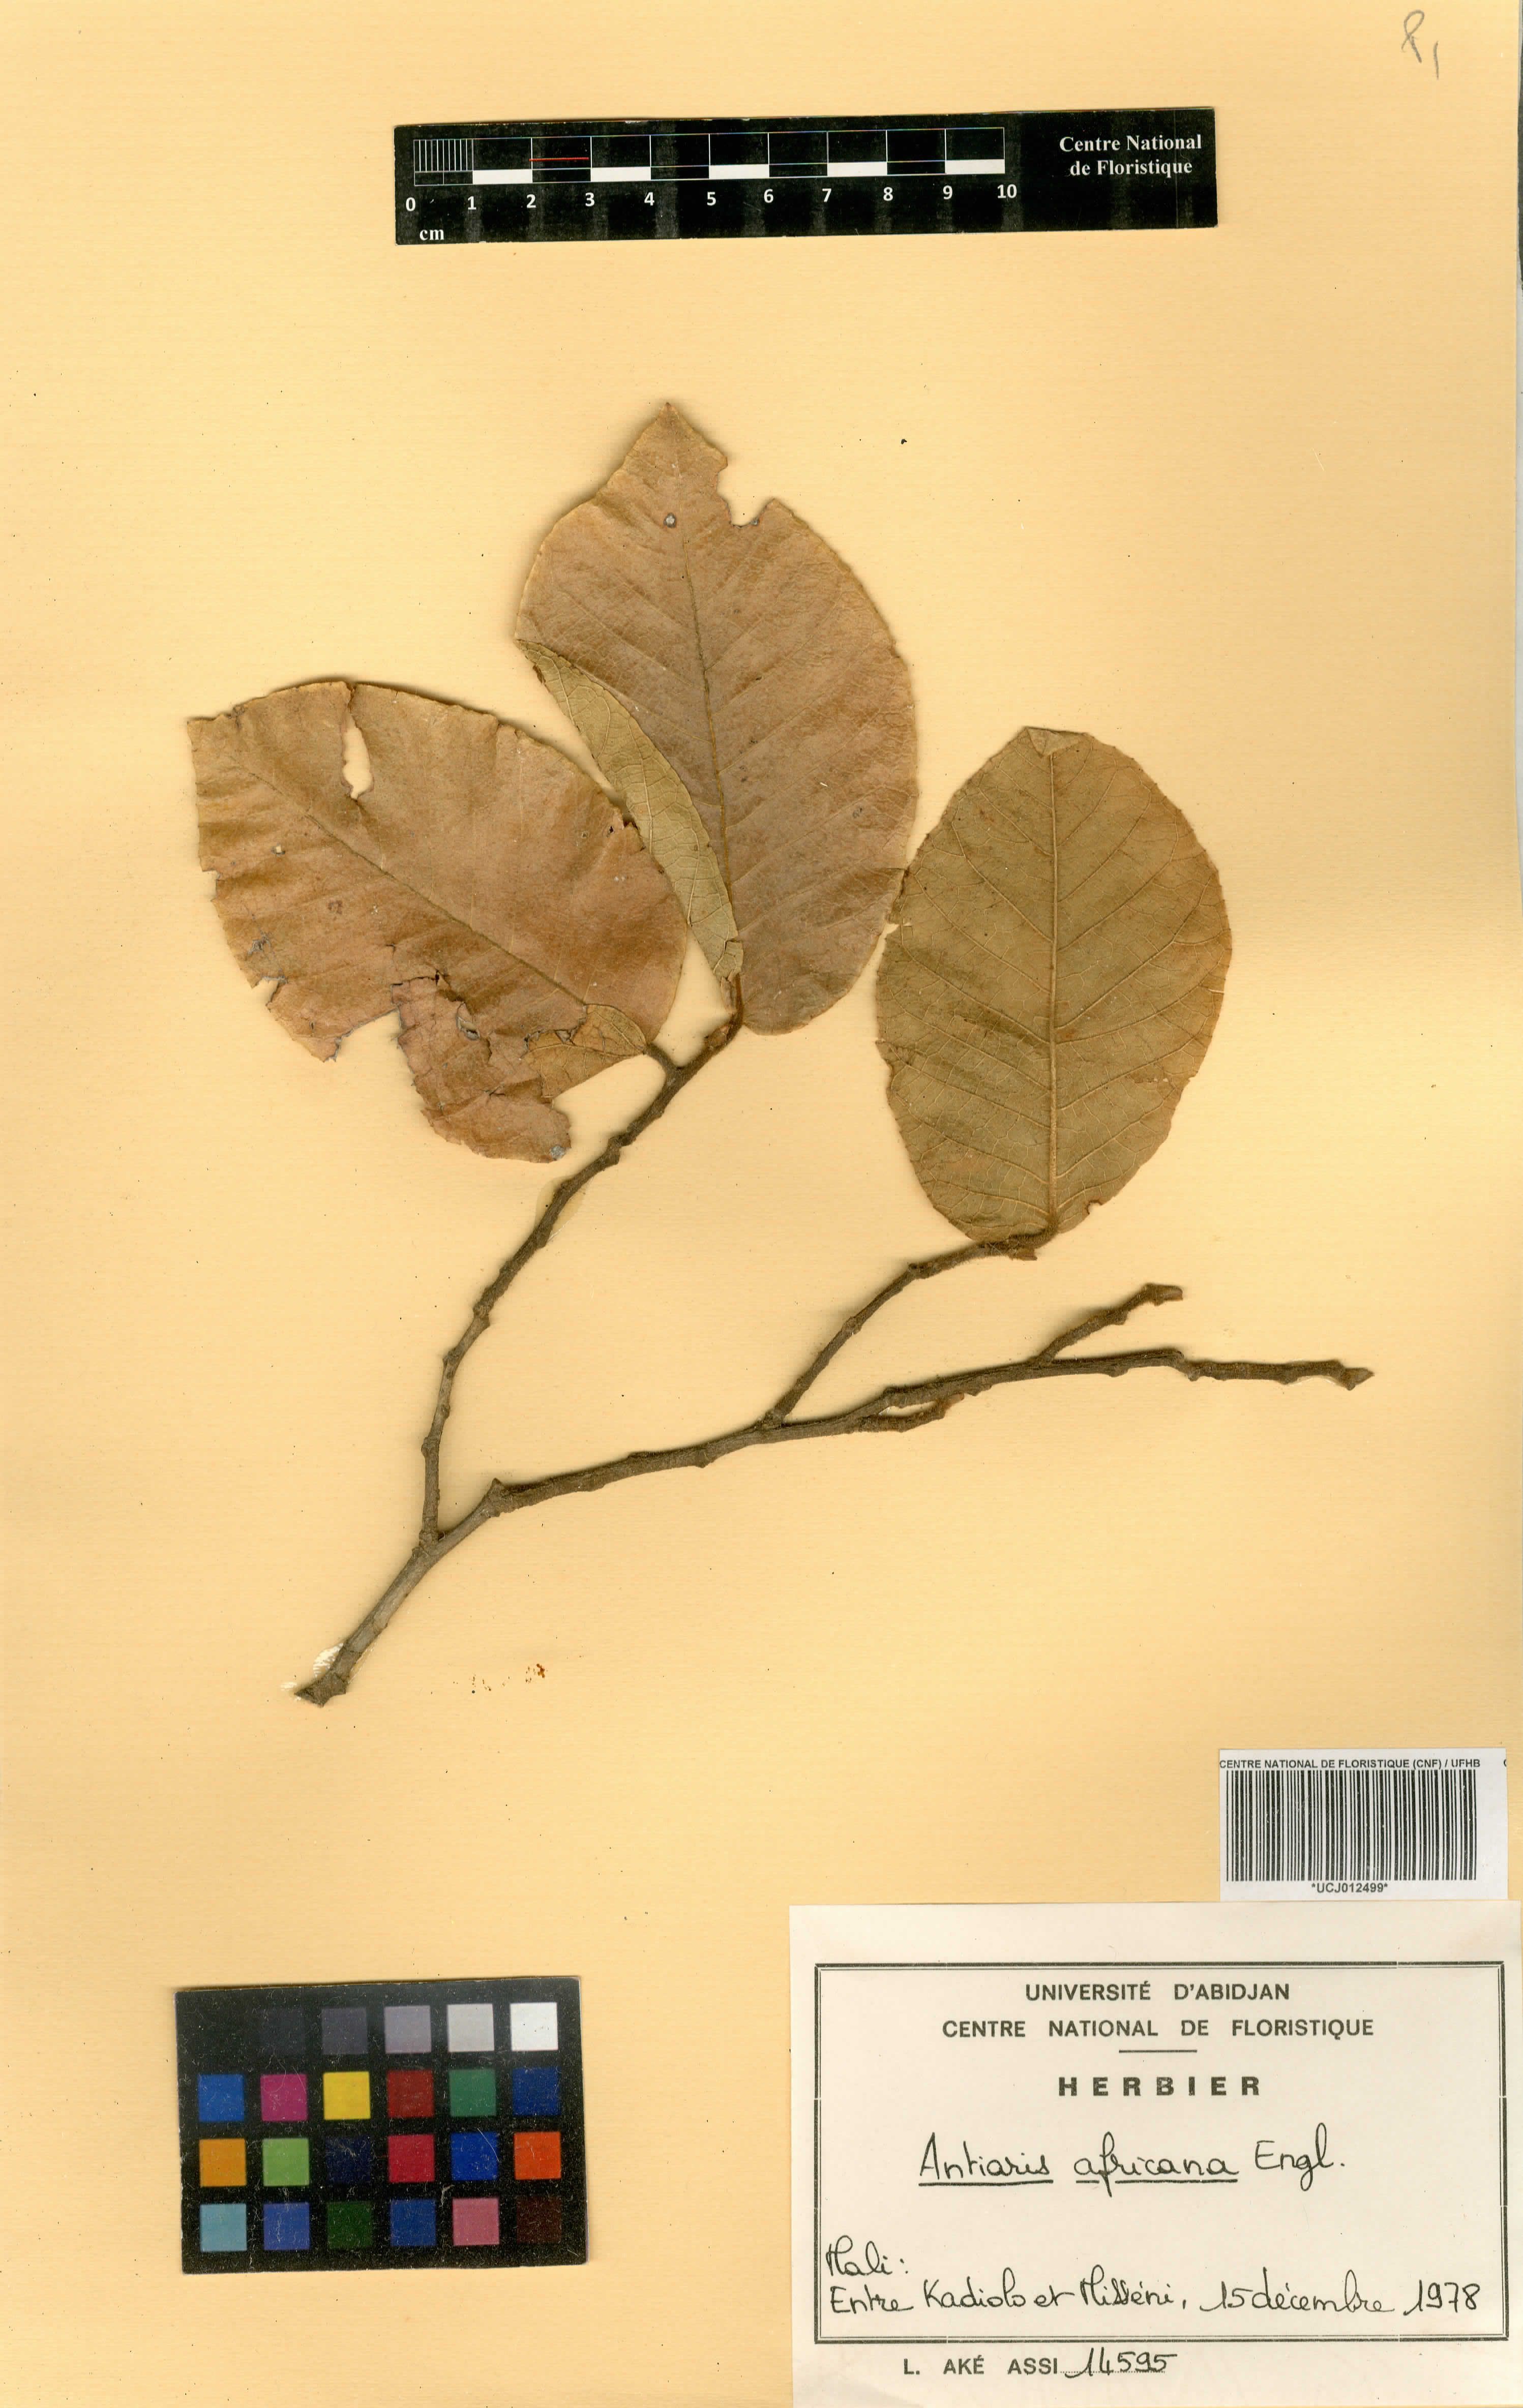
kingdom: Plantae
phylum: Tracheophyta
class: Magnoliopsida
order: Rosales
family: Moraceae
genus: Antiaris
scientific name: Antiaris toxicaria
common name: Sackingtree
